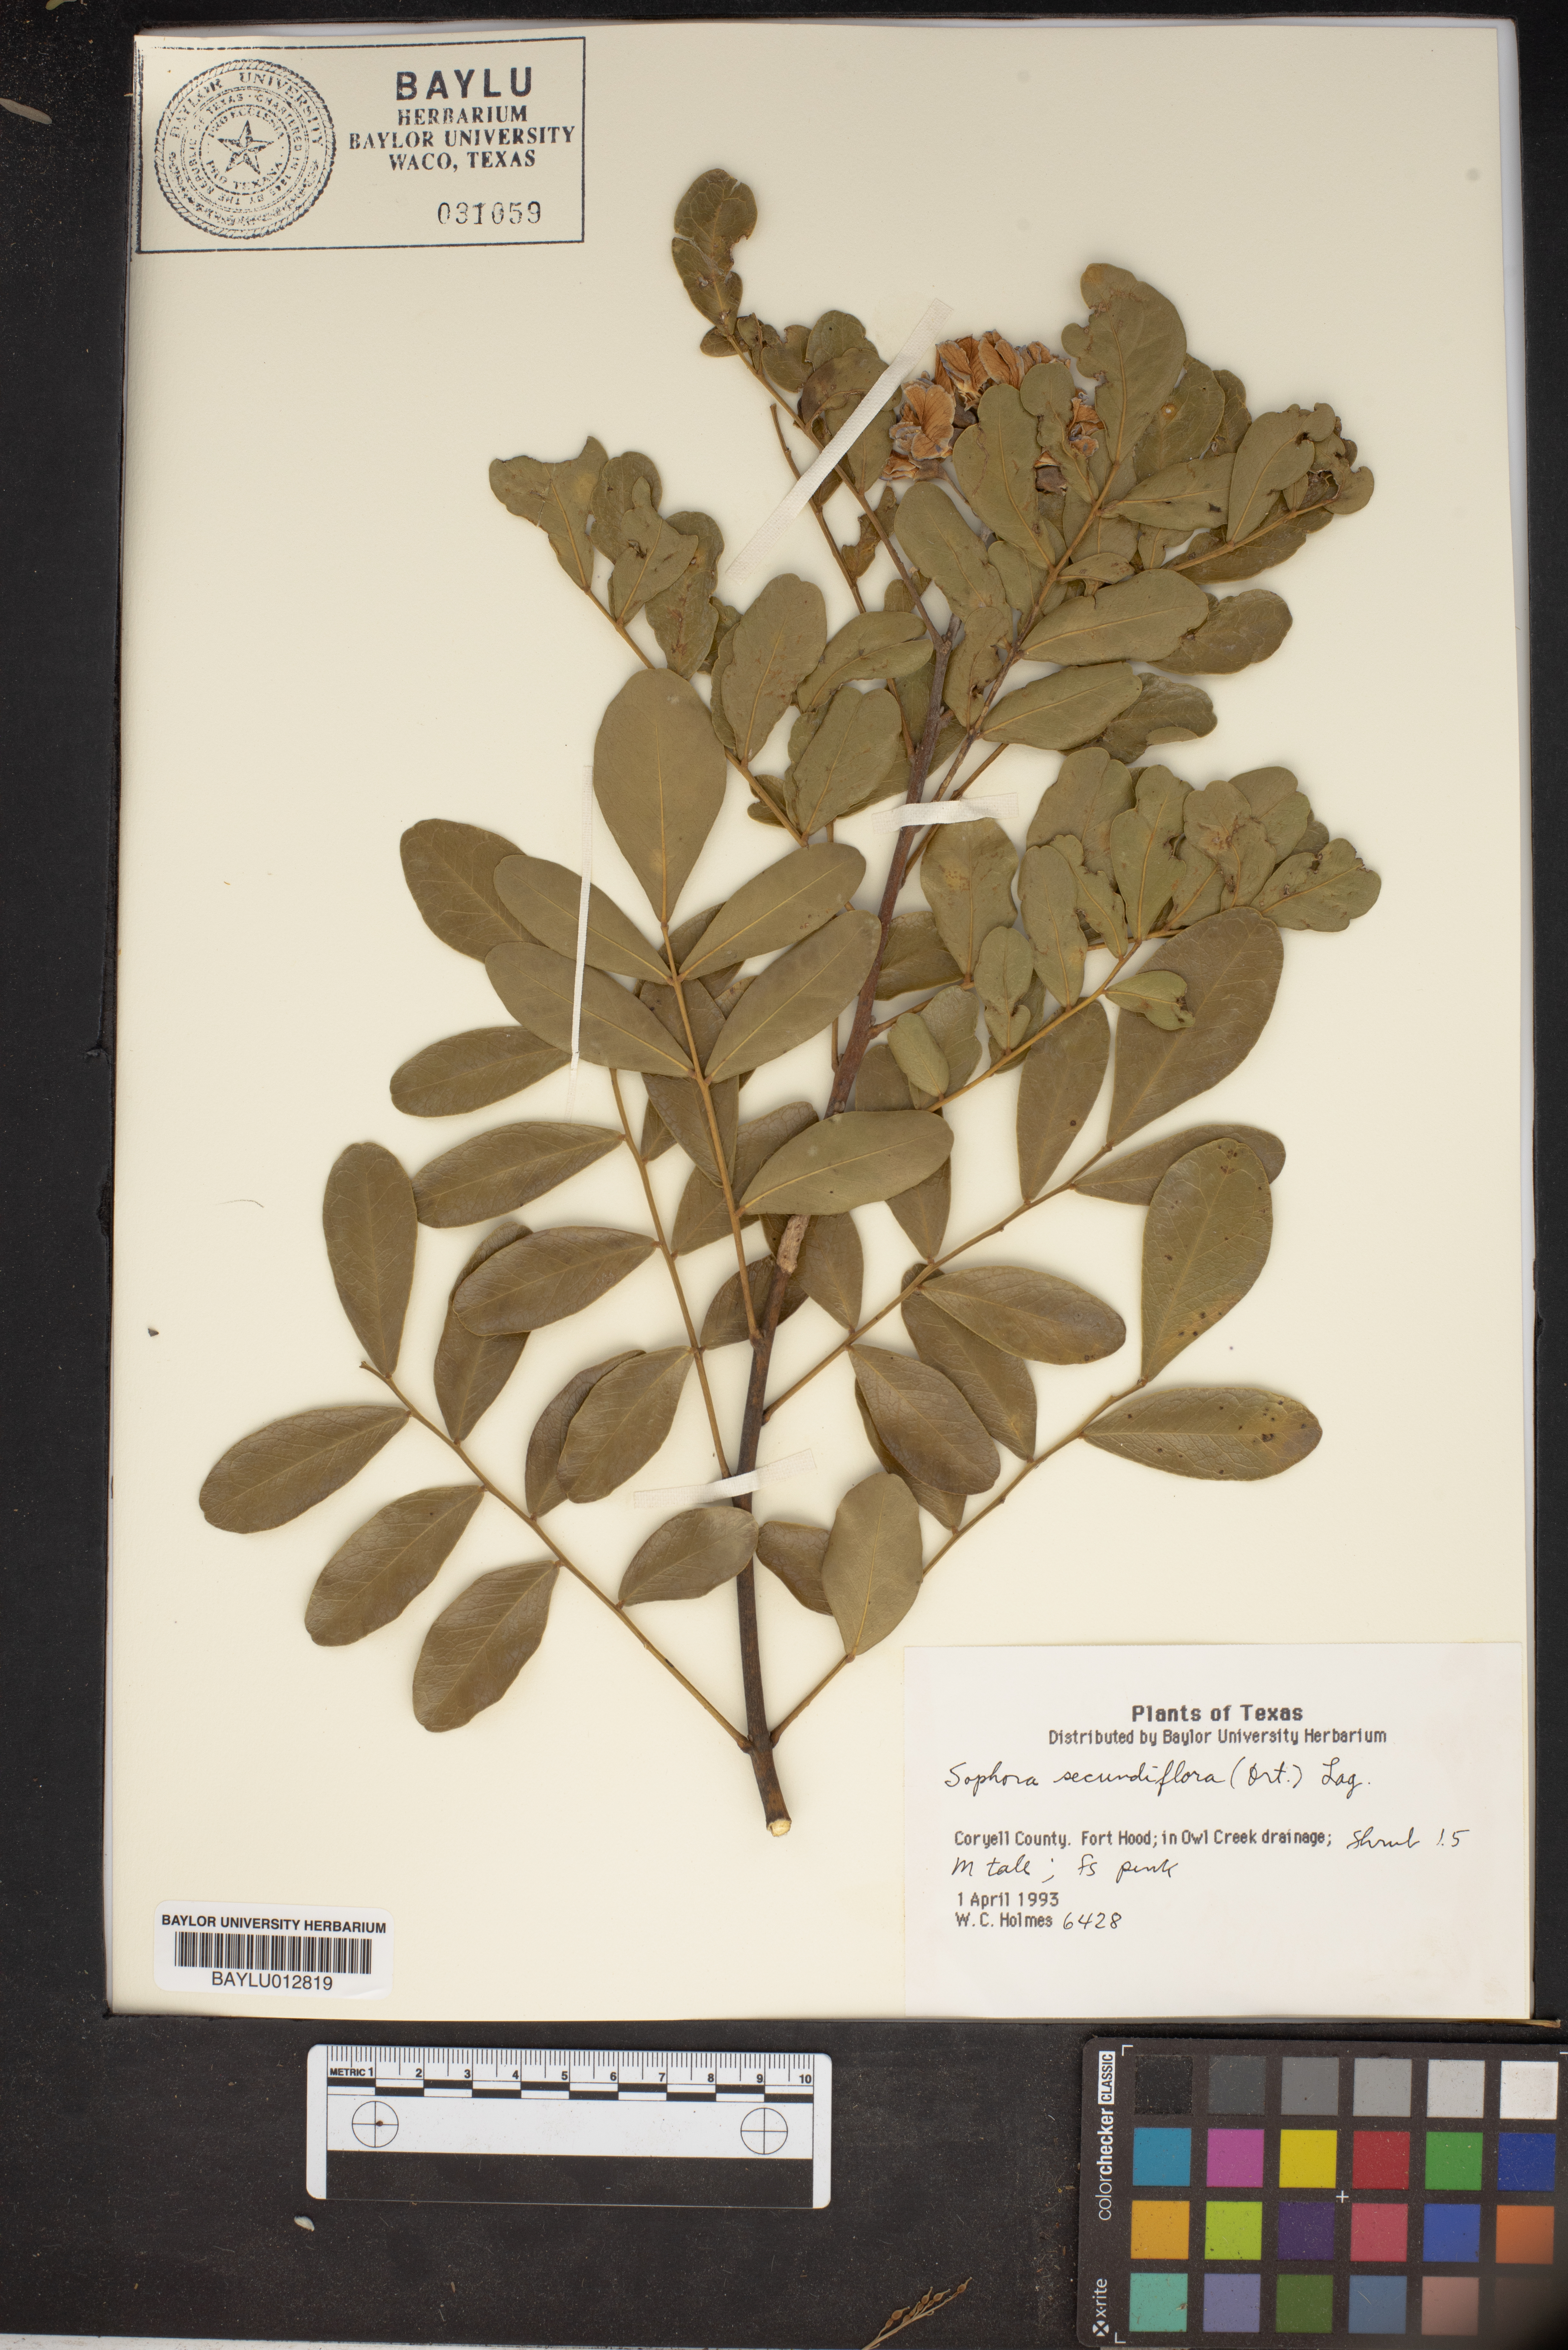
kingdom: Plantae
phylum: Tracheophyta
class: Magnoliopsida
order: Fabales
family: Fabaceae
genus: Dermatophyllum
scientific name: Dermatophyllum secundiflorum
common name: Texas-mountain-laurel
